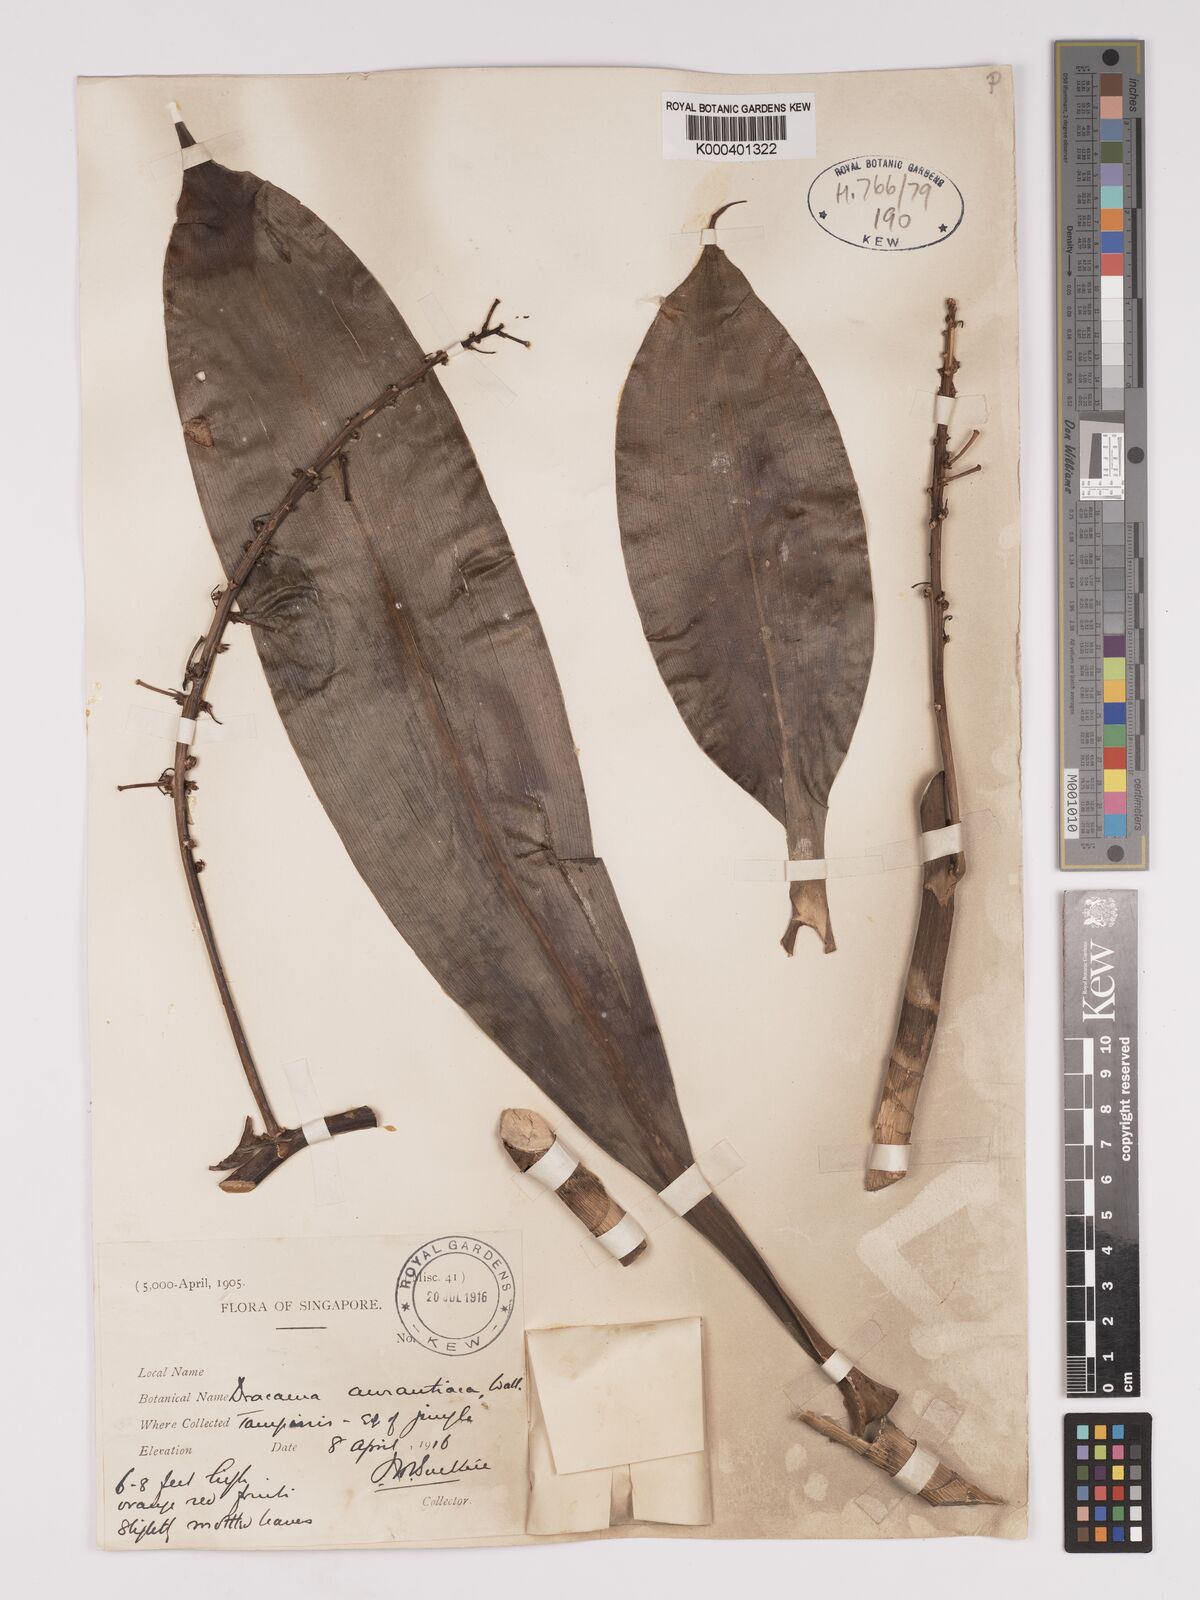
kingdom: Plantae
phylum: Tracheophyta
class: Liliopsida
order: Asparagales
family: Asparagaceae
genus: Dracaena
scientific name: Dracaena
